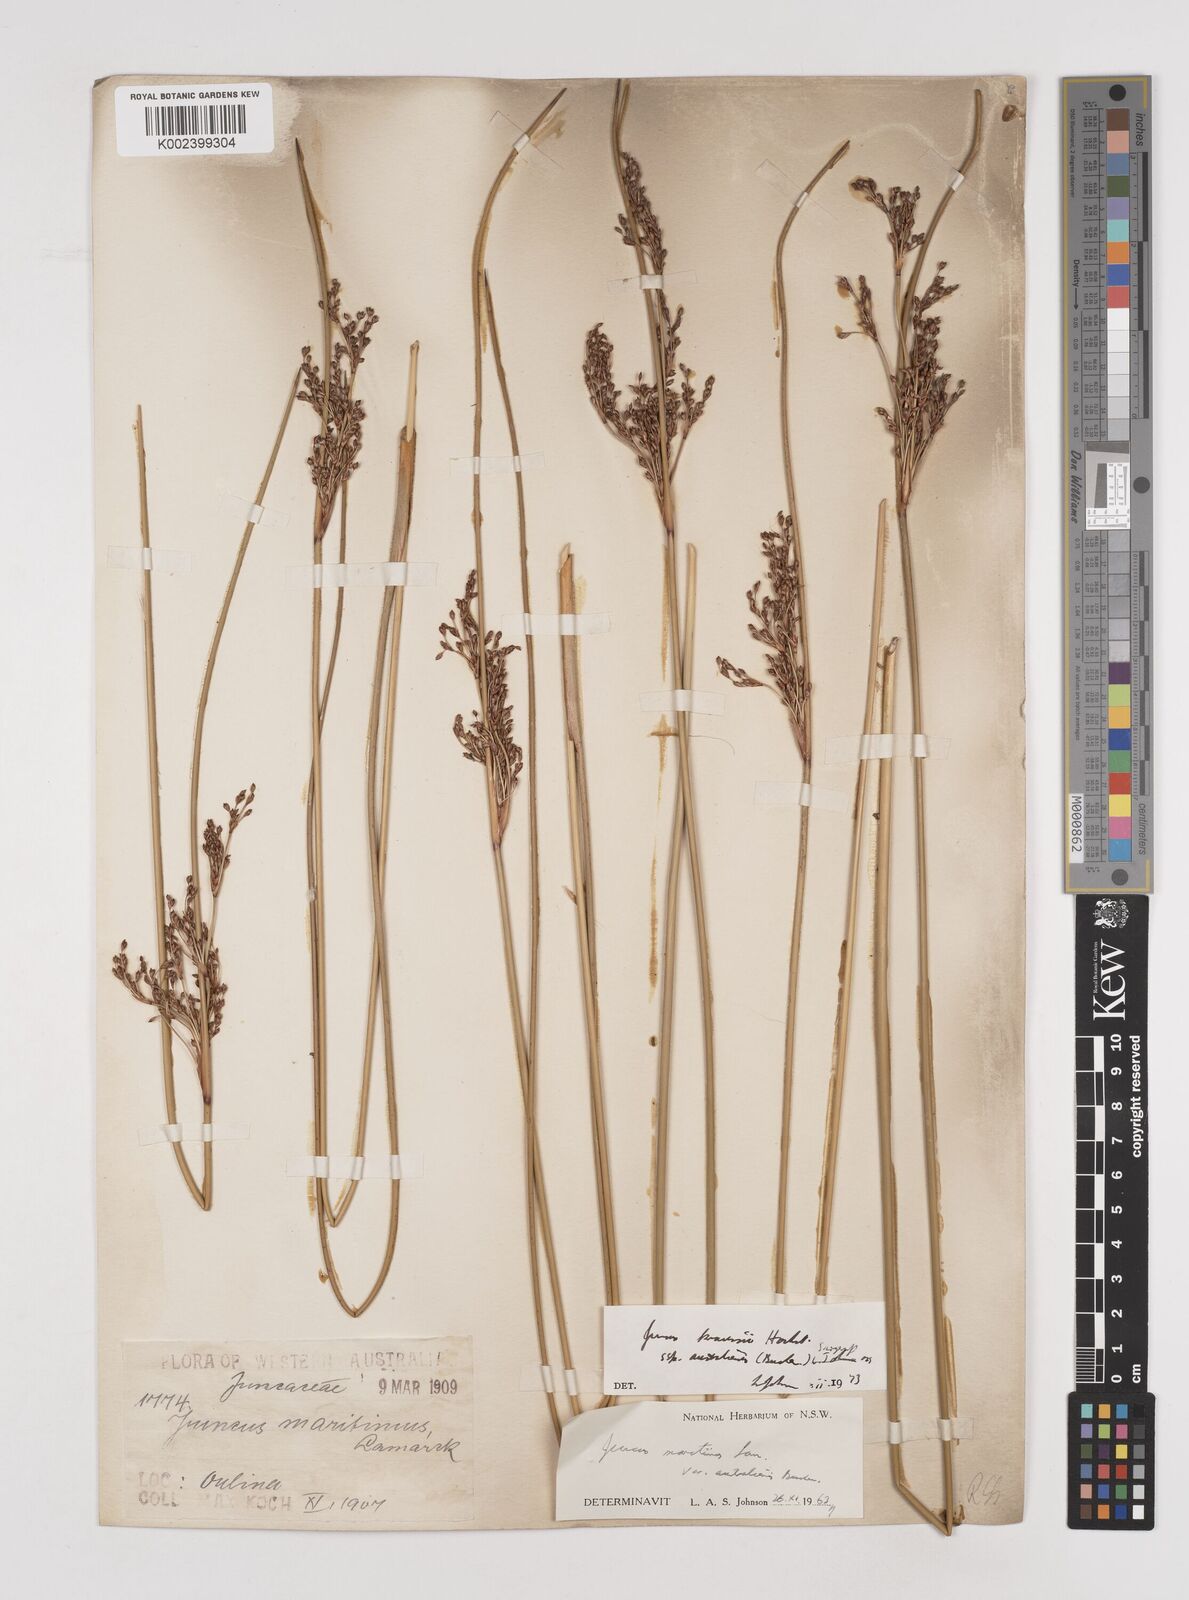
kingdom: Plantae
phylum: Tracheophyta
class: Liliopsida
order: Poales
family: Juncaceae
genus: Juncus
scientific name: Juncus kraussii
